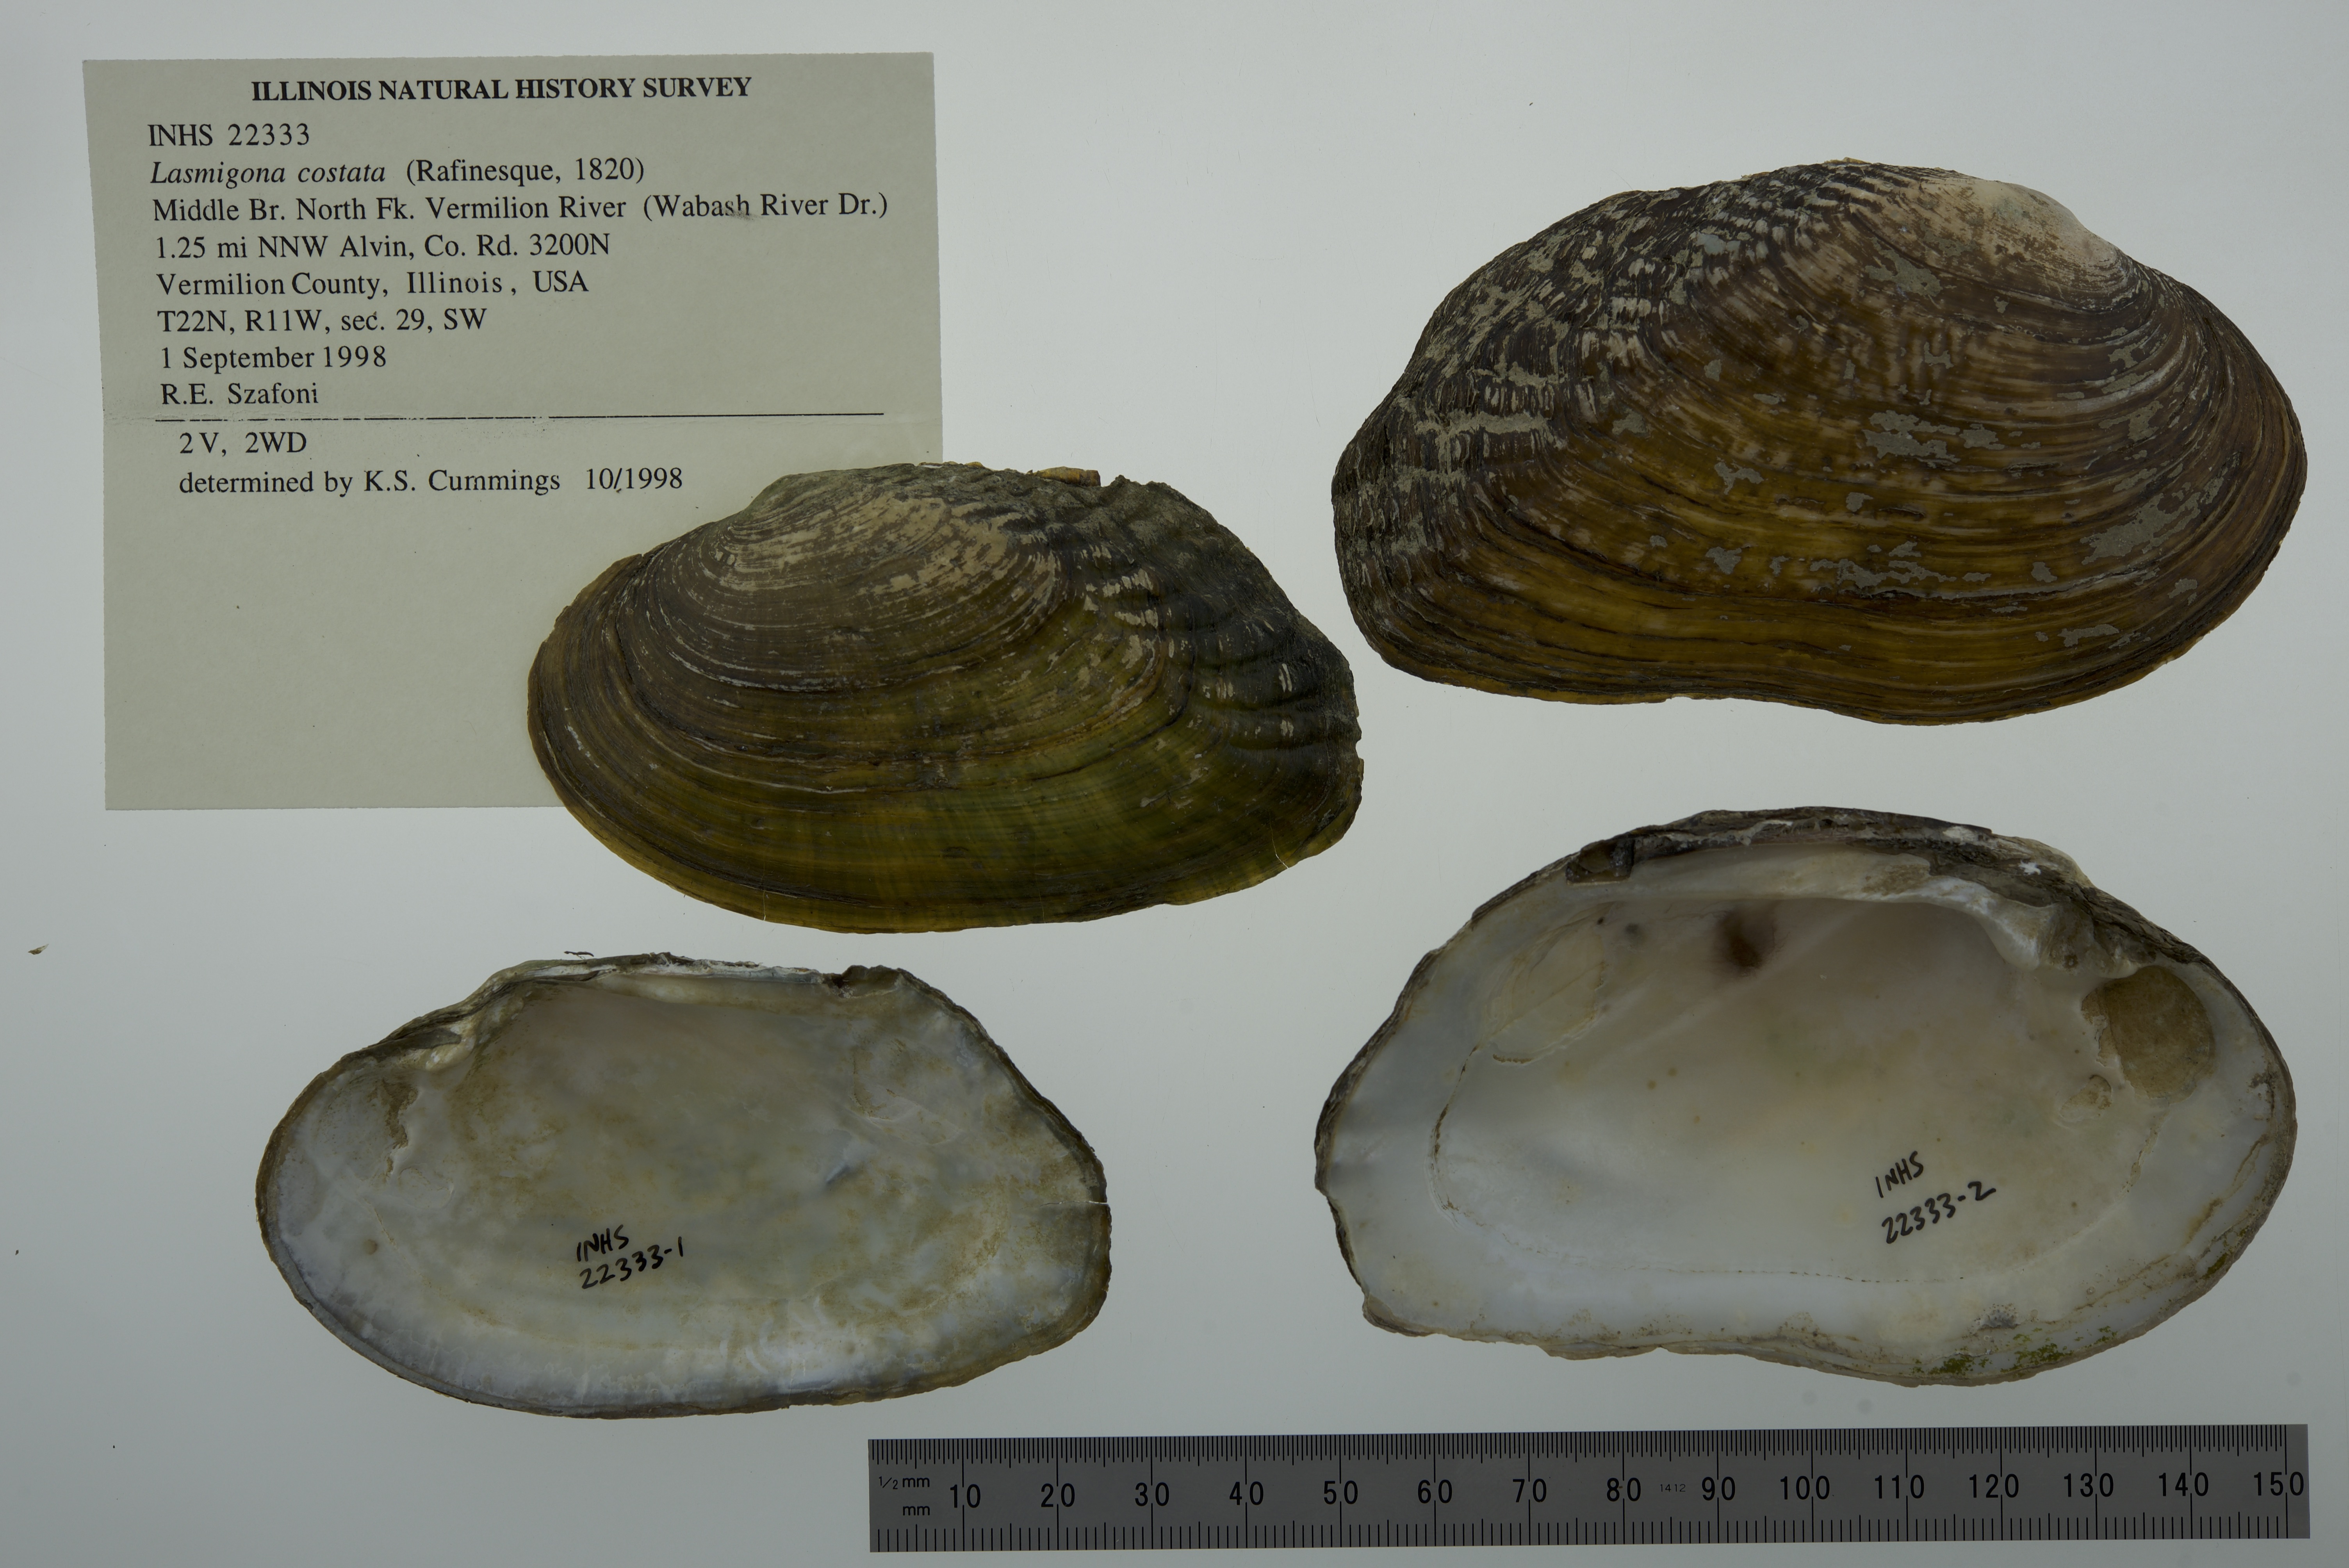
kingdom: Animalia
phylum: Mollusca
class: Bivalvia
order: Unionida
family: Unionidae
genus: Lasmigona
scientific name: Lasmigona costata
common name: Flutedshell
